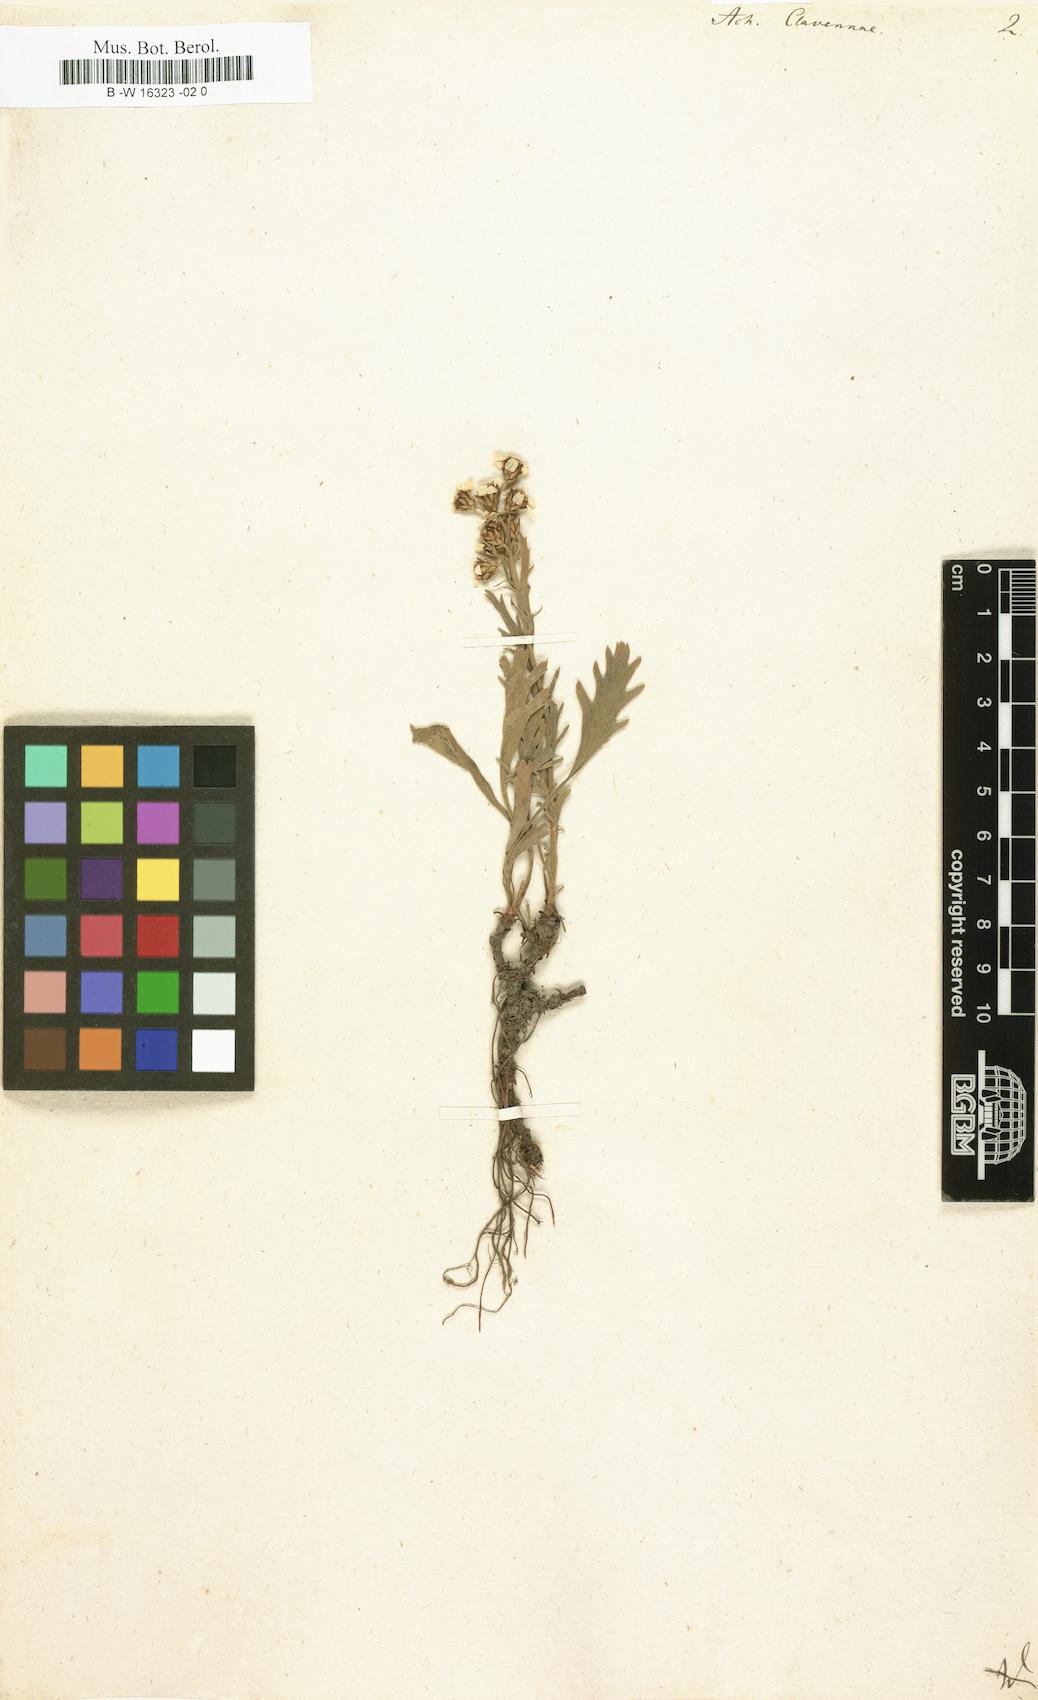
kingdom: Plantae
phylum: Tracheophyta
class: Magnoliopsida
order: Asterales
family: Asteraceae
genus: Achillea
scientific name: Achillea clavennae
